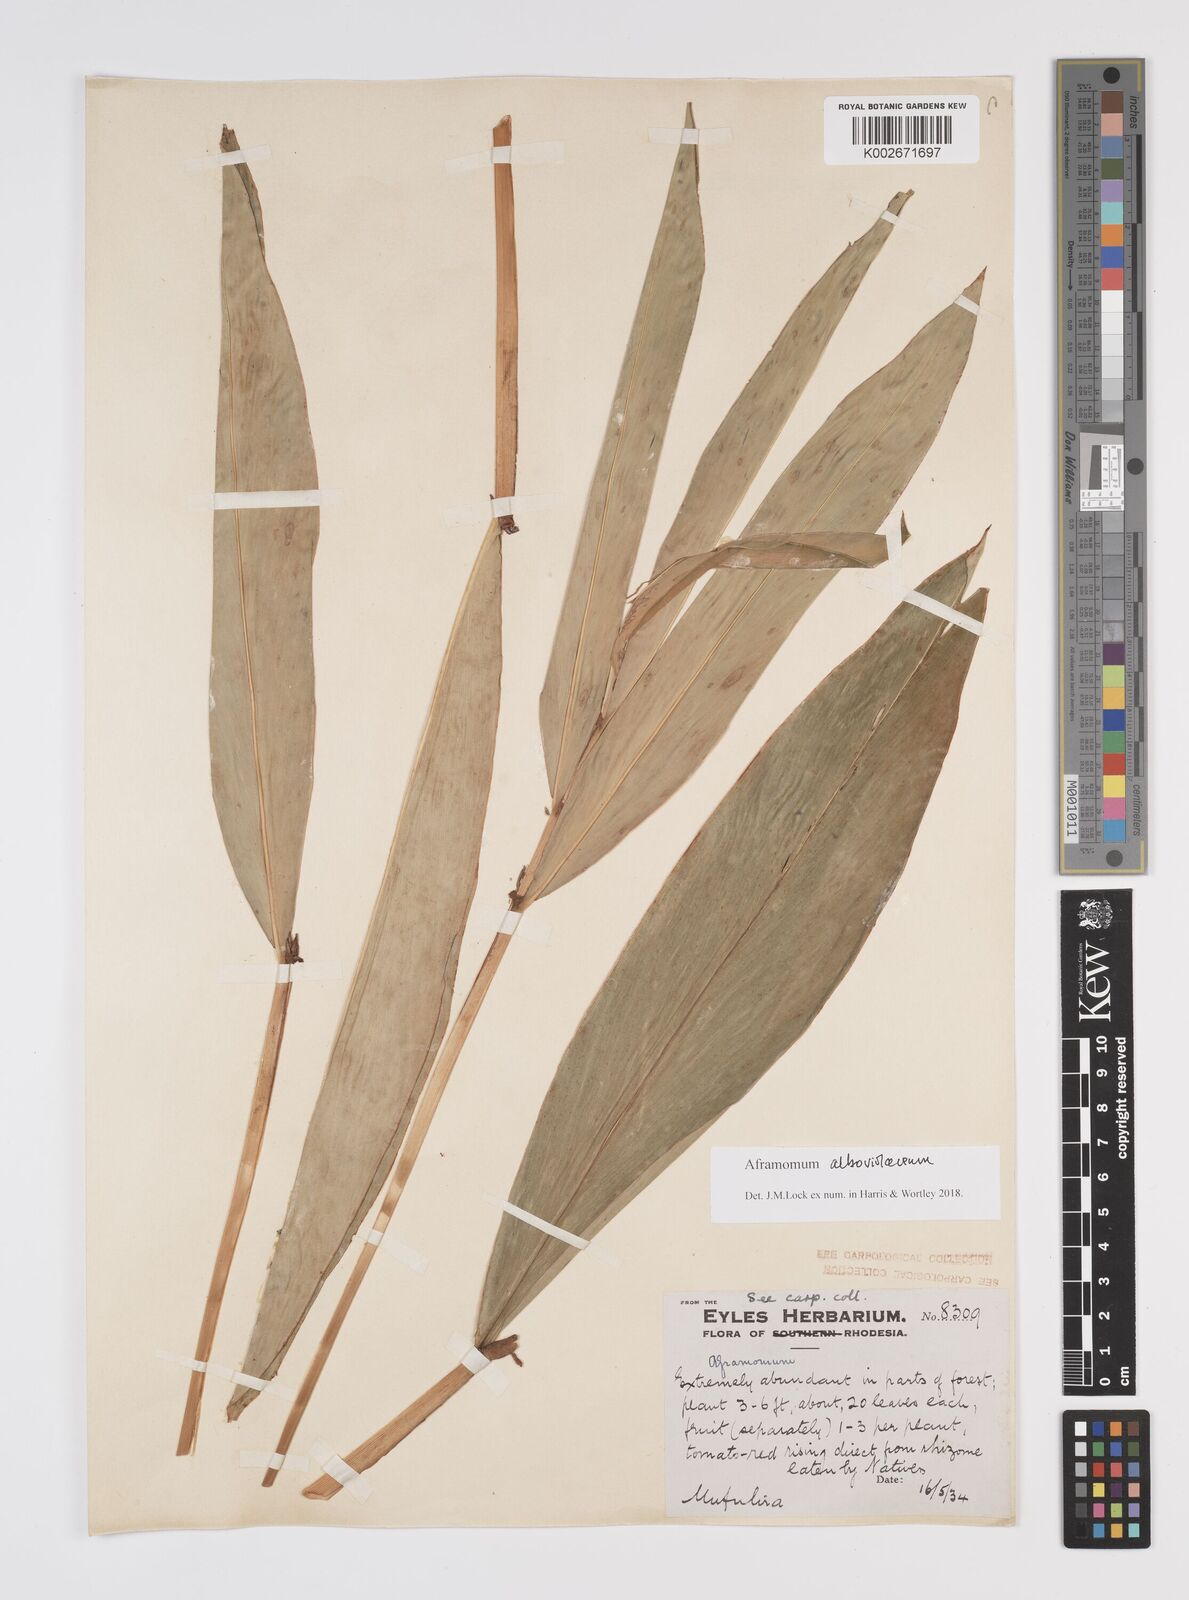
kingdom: Plantae
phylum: Tracheophyta
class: Liliopsida
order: Zingiberales
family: Zingiberaceae
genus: Aframomum
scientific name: Aframomum alboviolaceum
